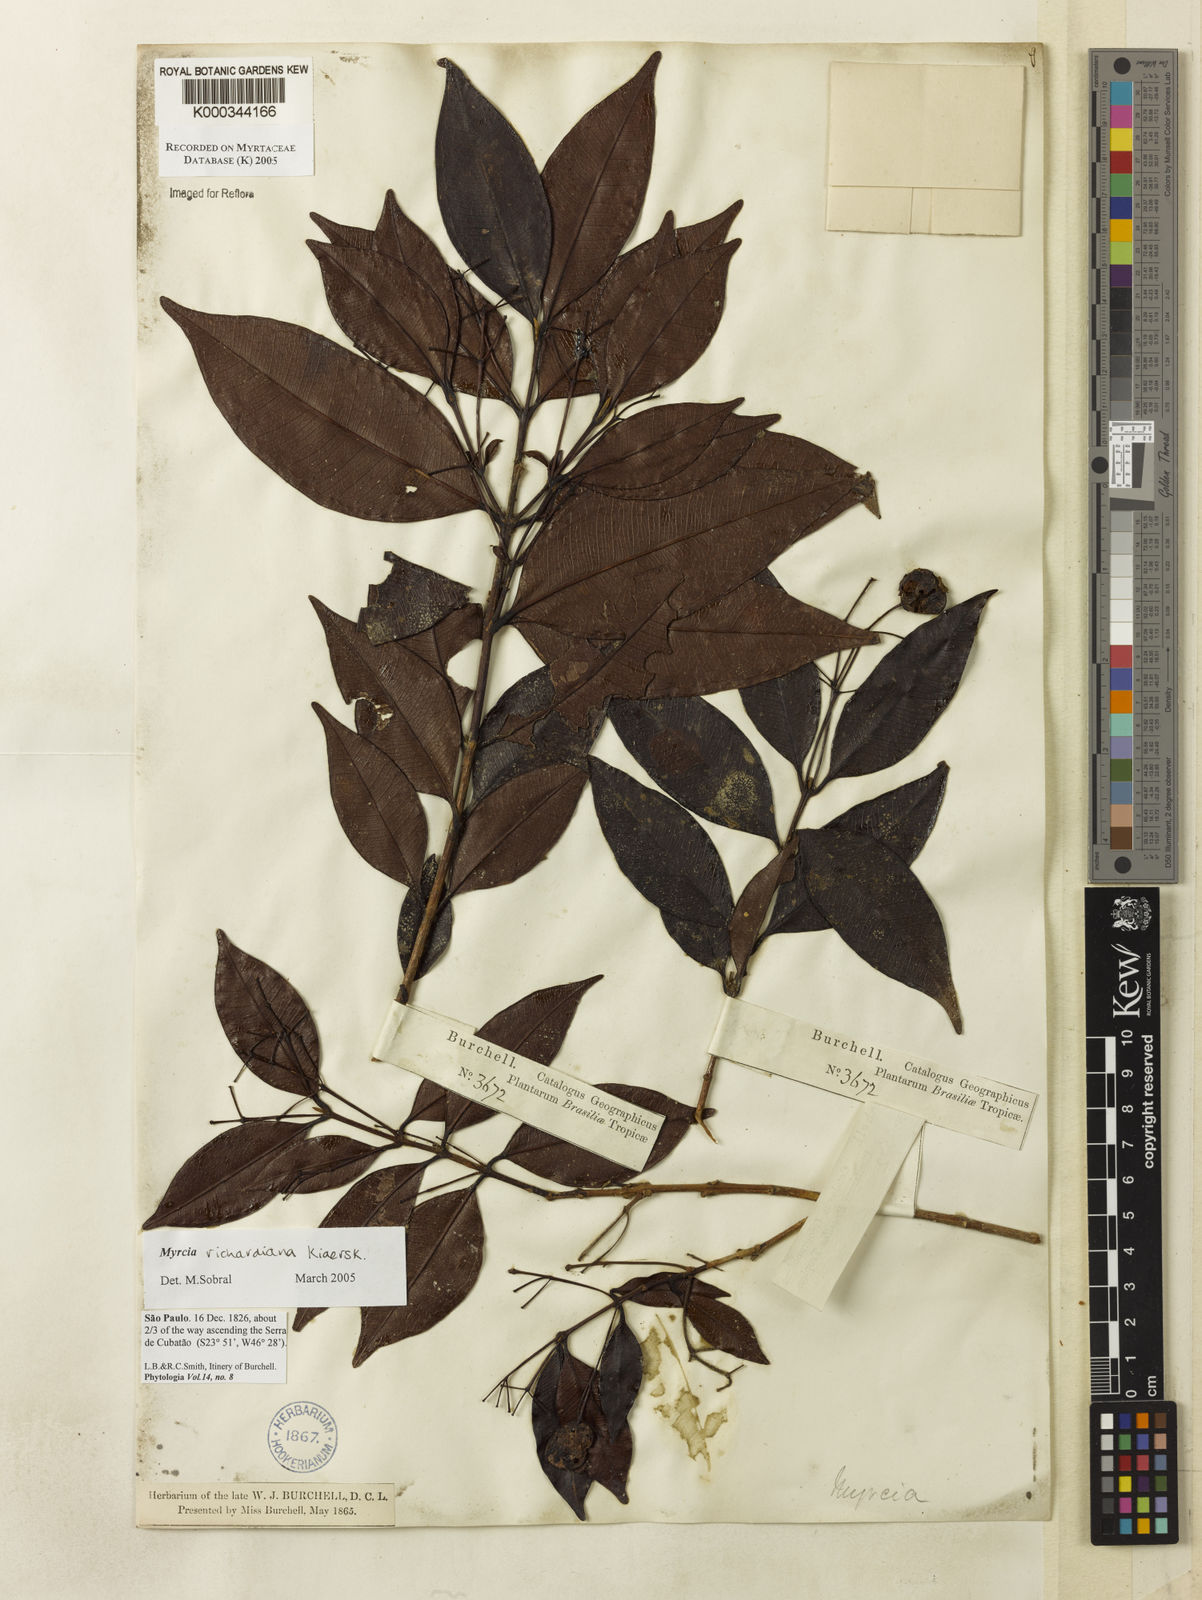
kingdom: Plantae
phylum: Tracheophyta
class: Magnoliopsida
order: Myrtales
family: Myrtaceae
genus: Myrcia
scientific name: Myrcia richardiana
